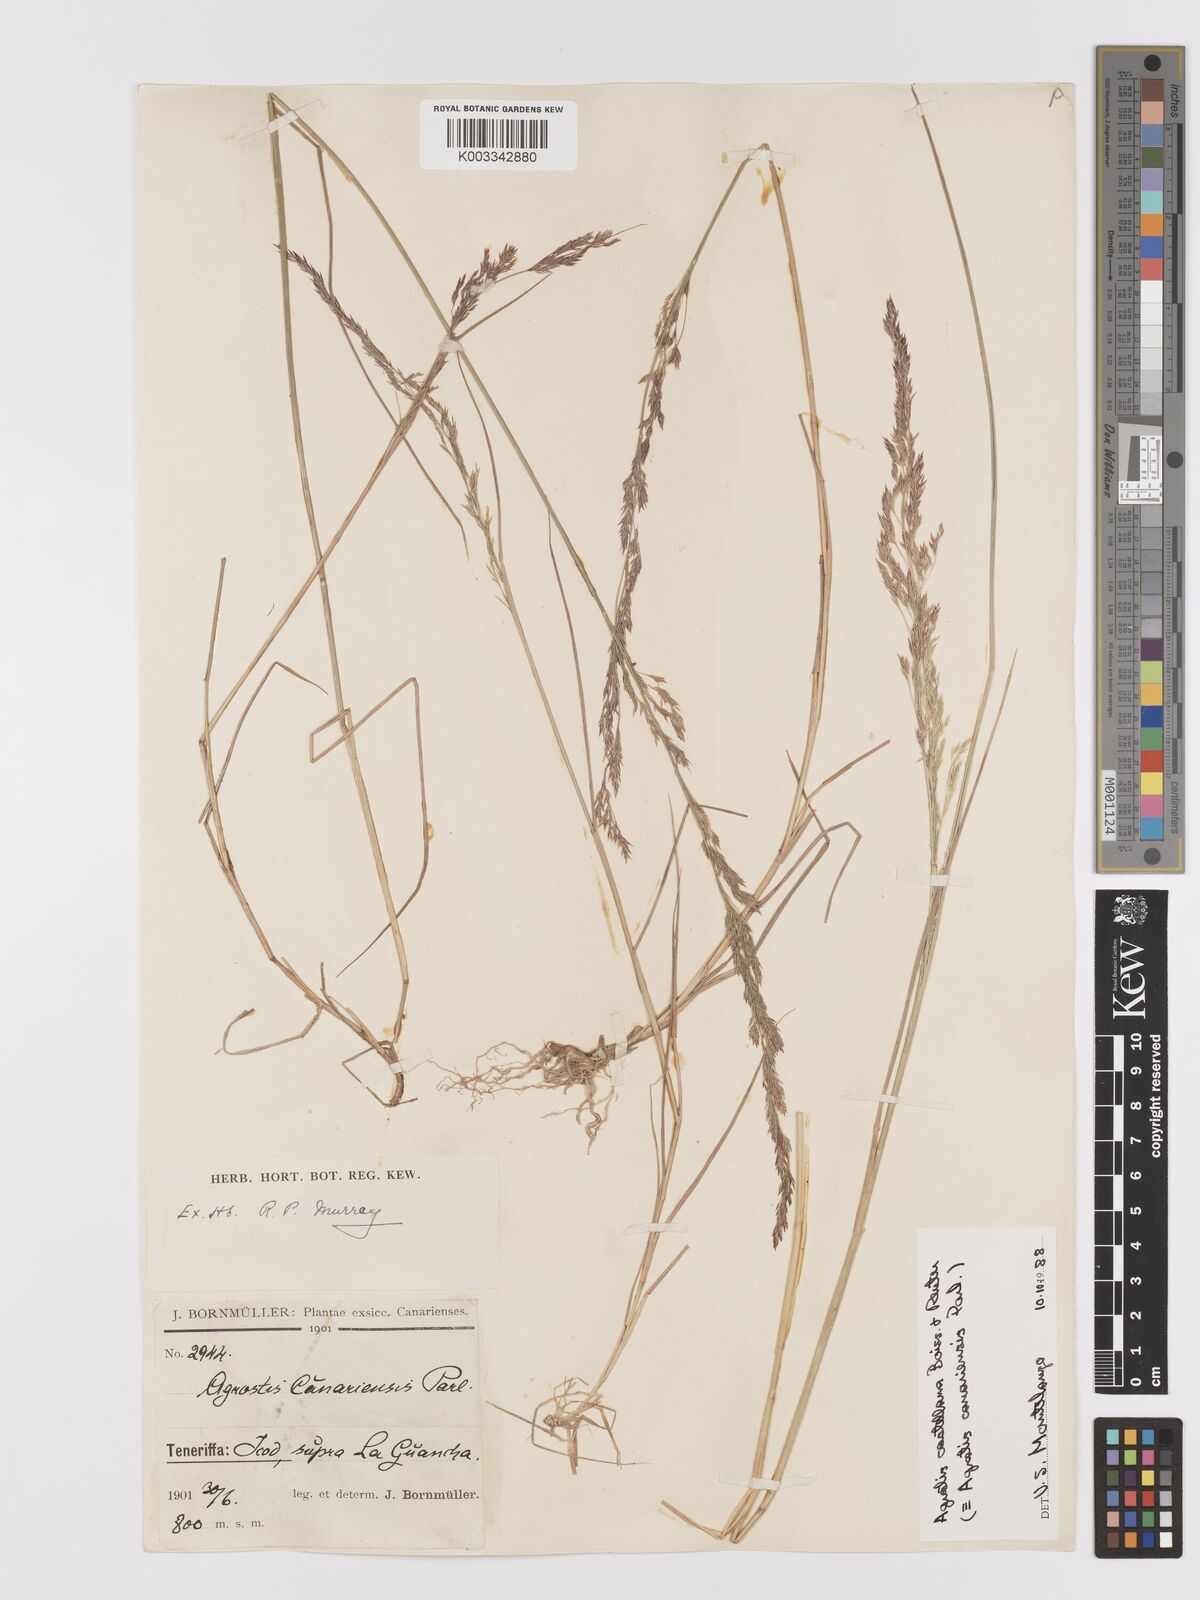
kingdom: Plantae
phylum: Tracheophyta
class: Liliopsida
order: Poales
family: Poaceae
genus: Agrostis
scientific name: Agrostis castellana
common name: Highland bent
